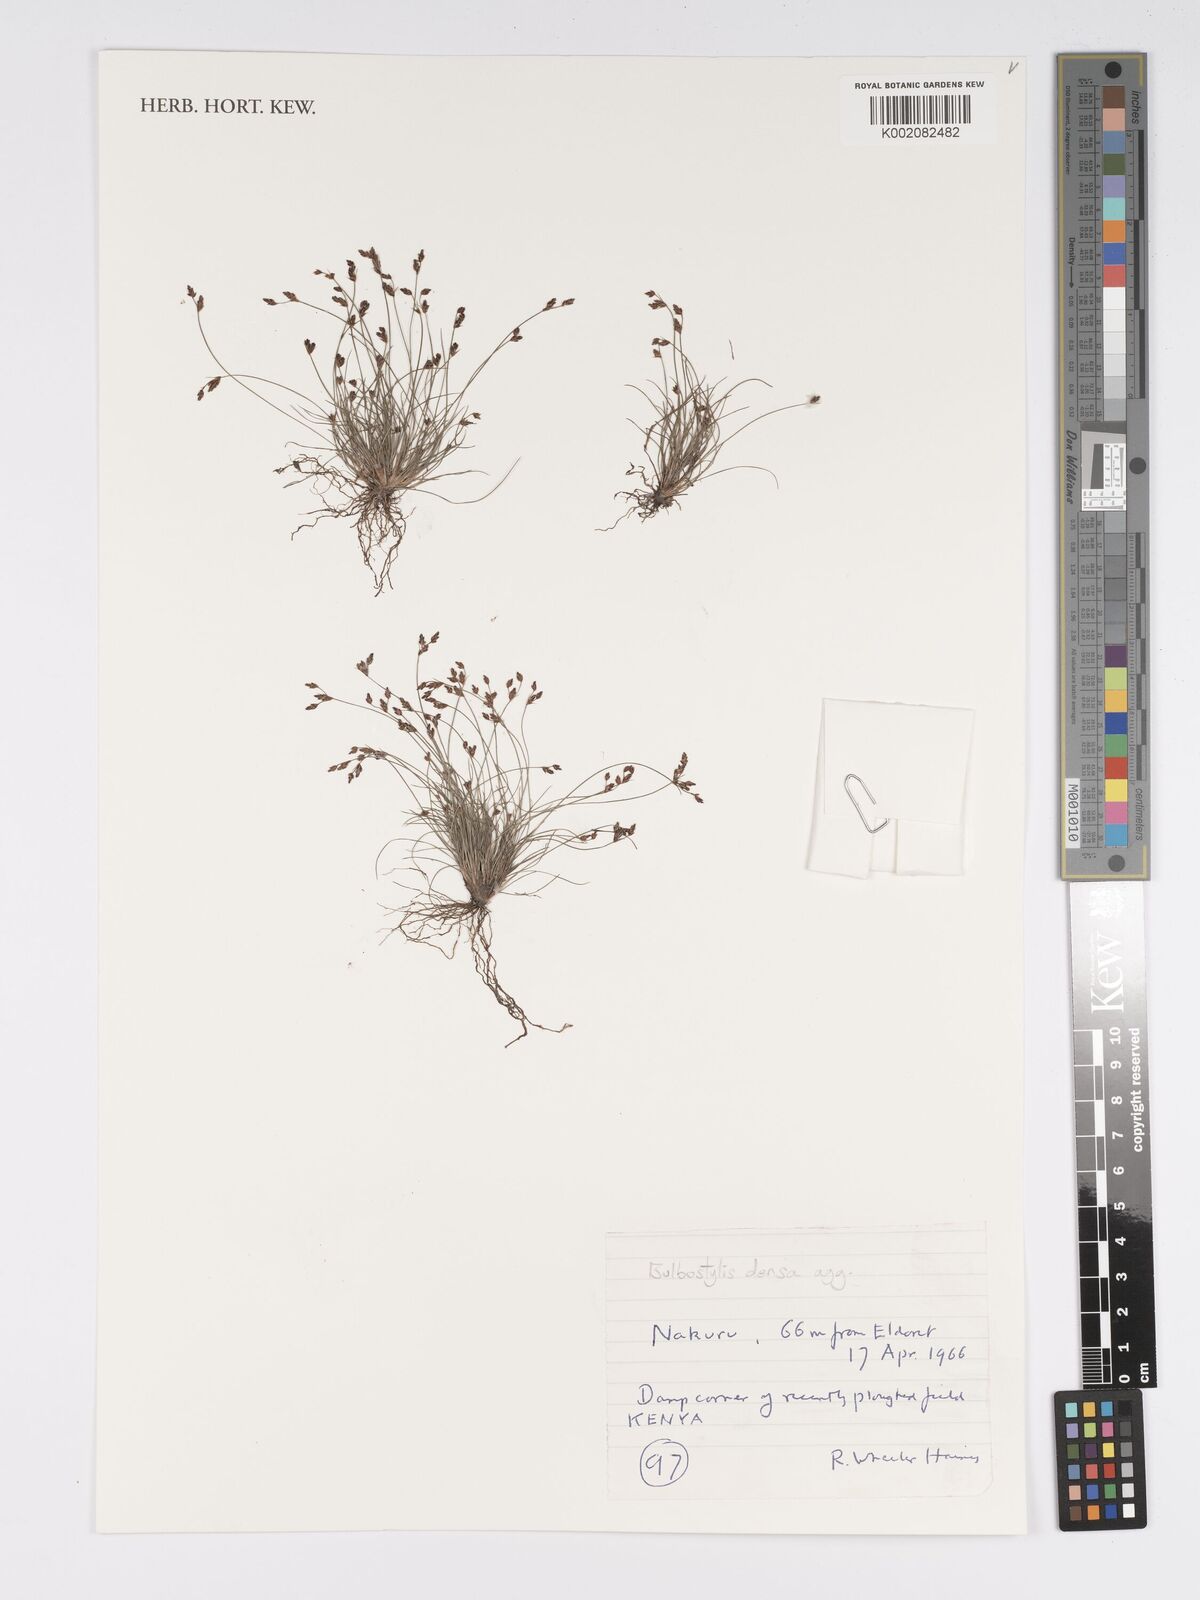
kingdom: Plantae
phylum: Tracheophyta
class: Liliopsida
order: Poales
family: Cyperaceae
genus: Bulbostylis
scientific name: Bulbostylis densa
